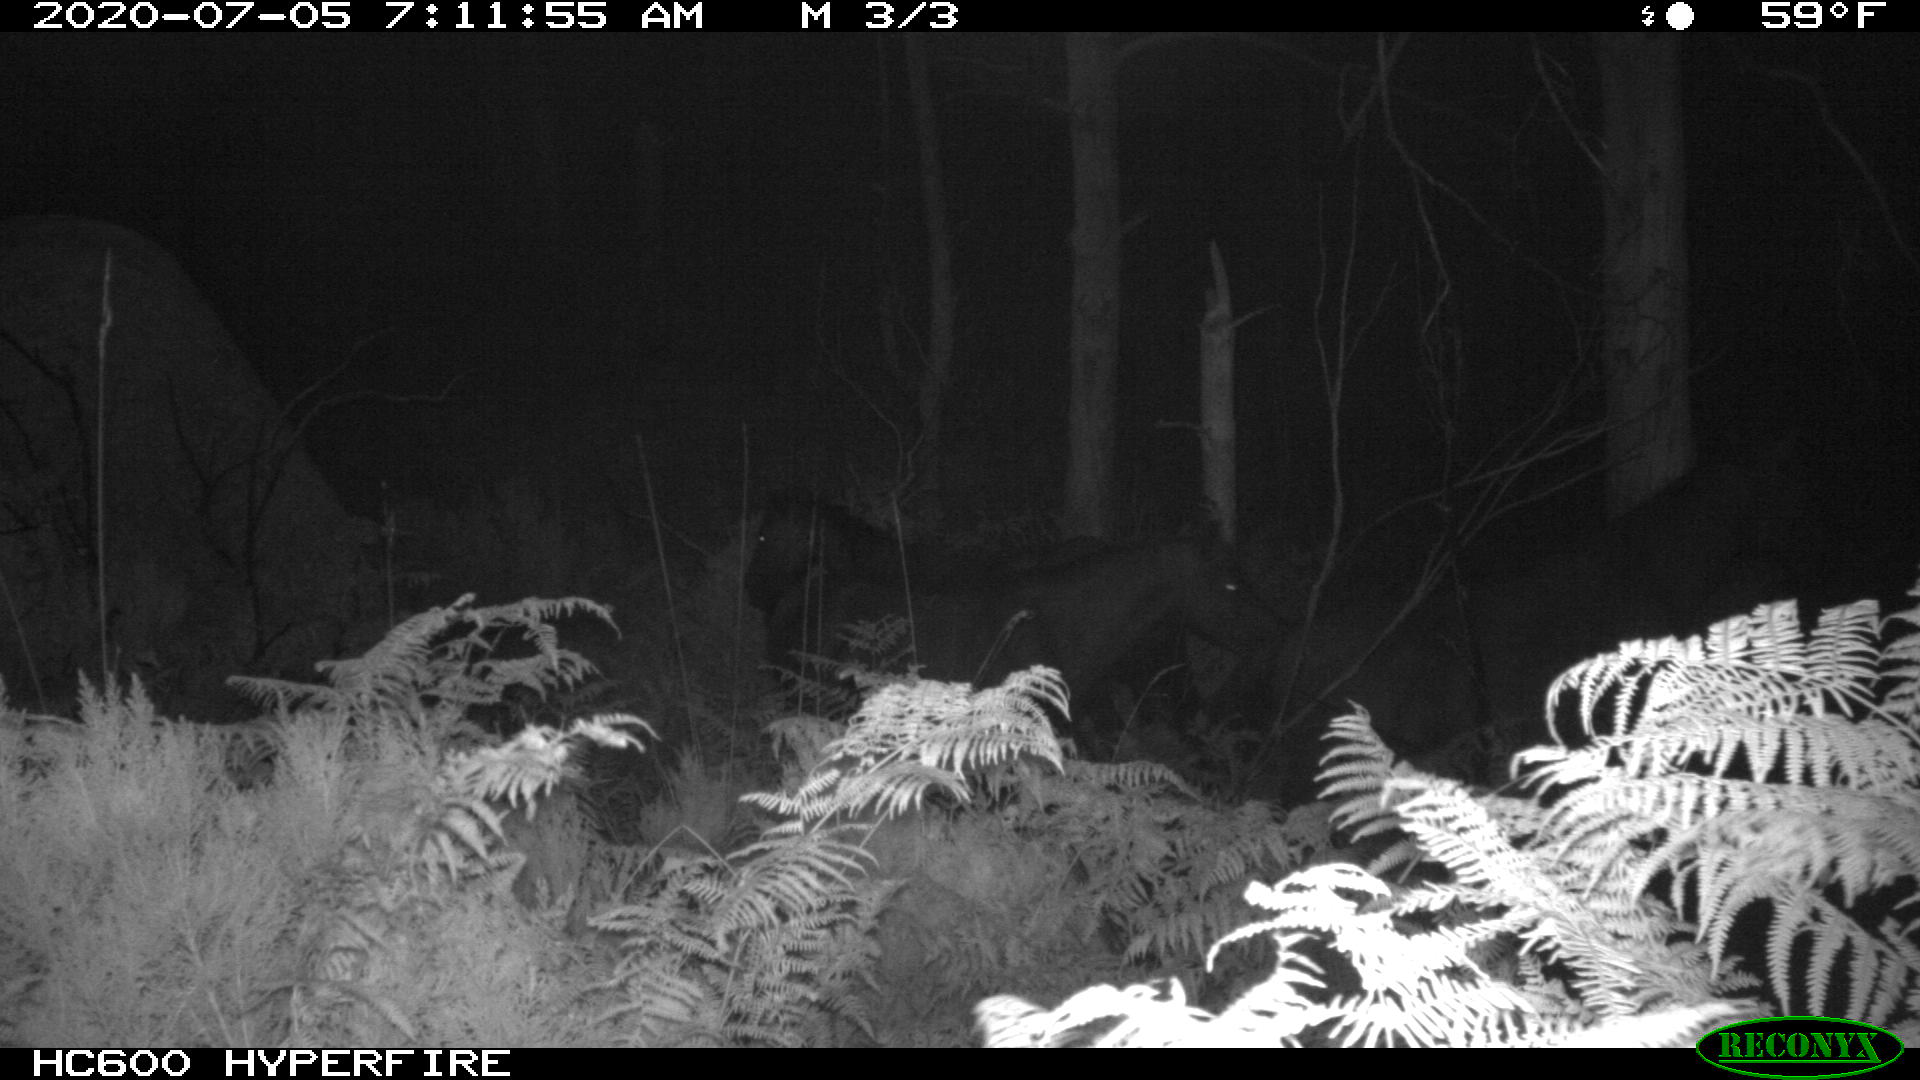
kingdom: Animalia
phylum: Chordata
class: Mammalia
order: Perissodactyla
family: Equidae
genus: Equus
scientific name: Equus caballus
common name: Horse
